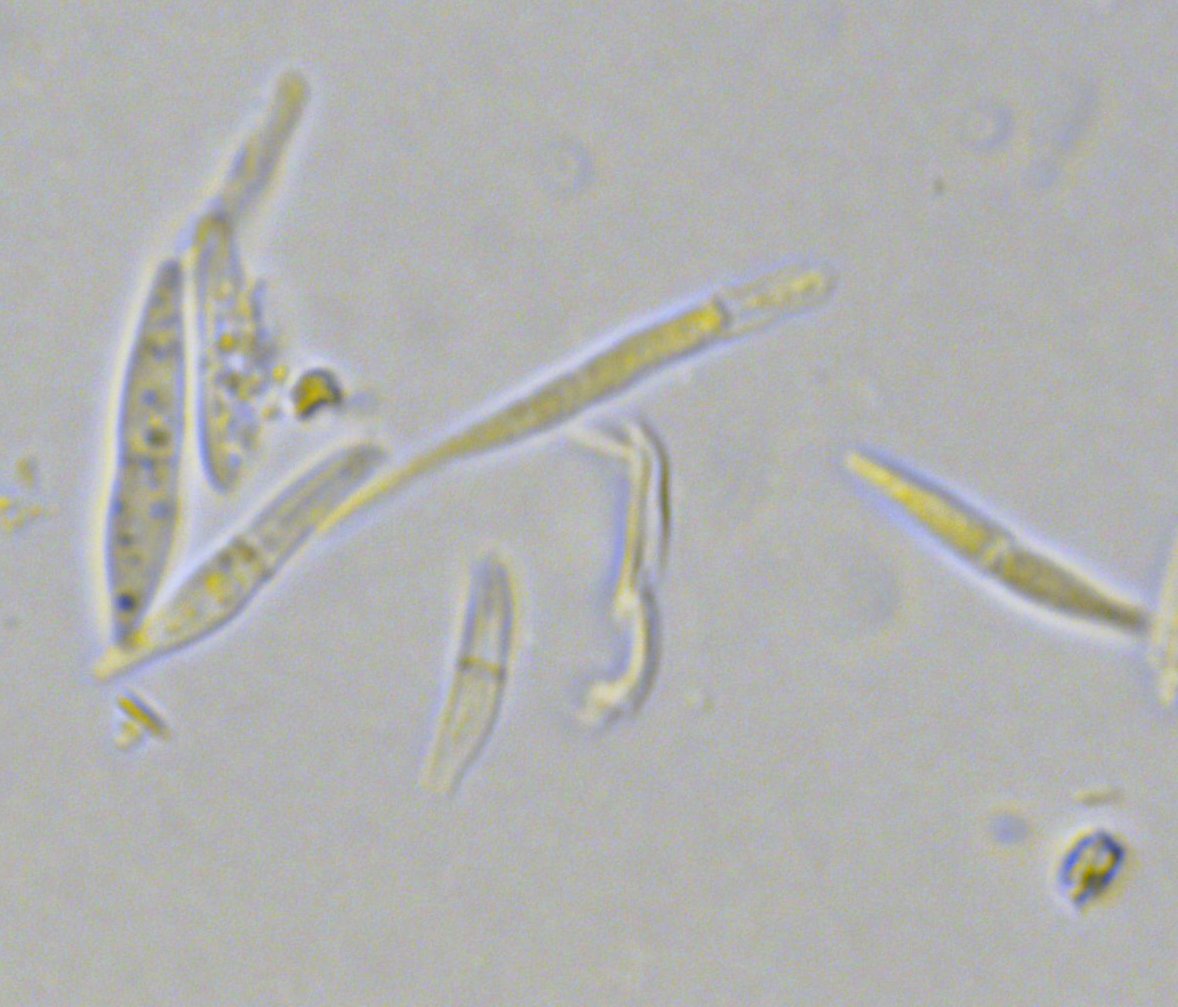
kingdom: Fungi
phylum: Ascomycota
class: Sordariomycetes
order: Diaporthales
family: Gnomoniaceae
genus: Sirococcus
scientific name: Sirococcus conigenus
